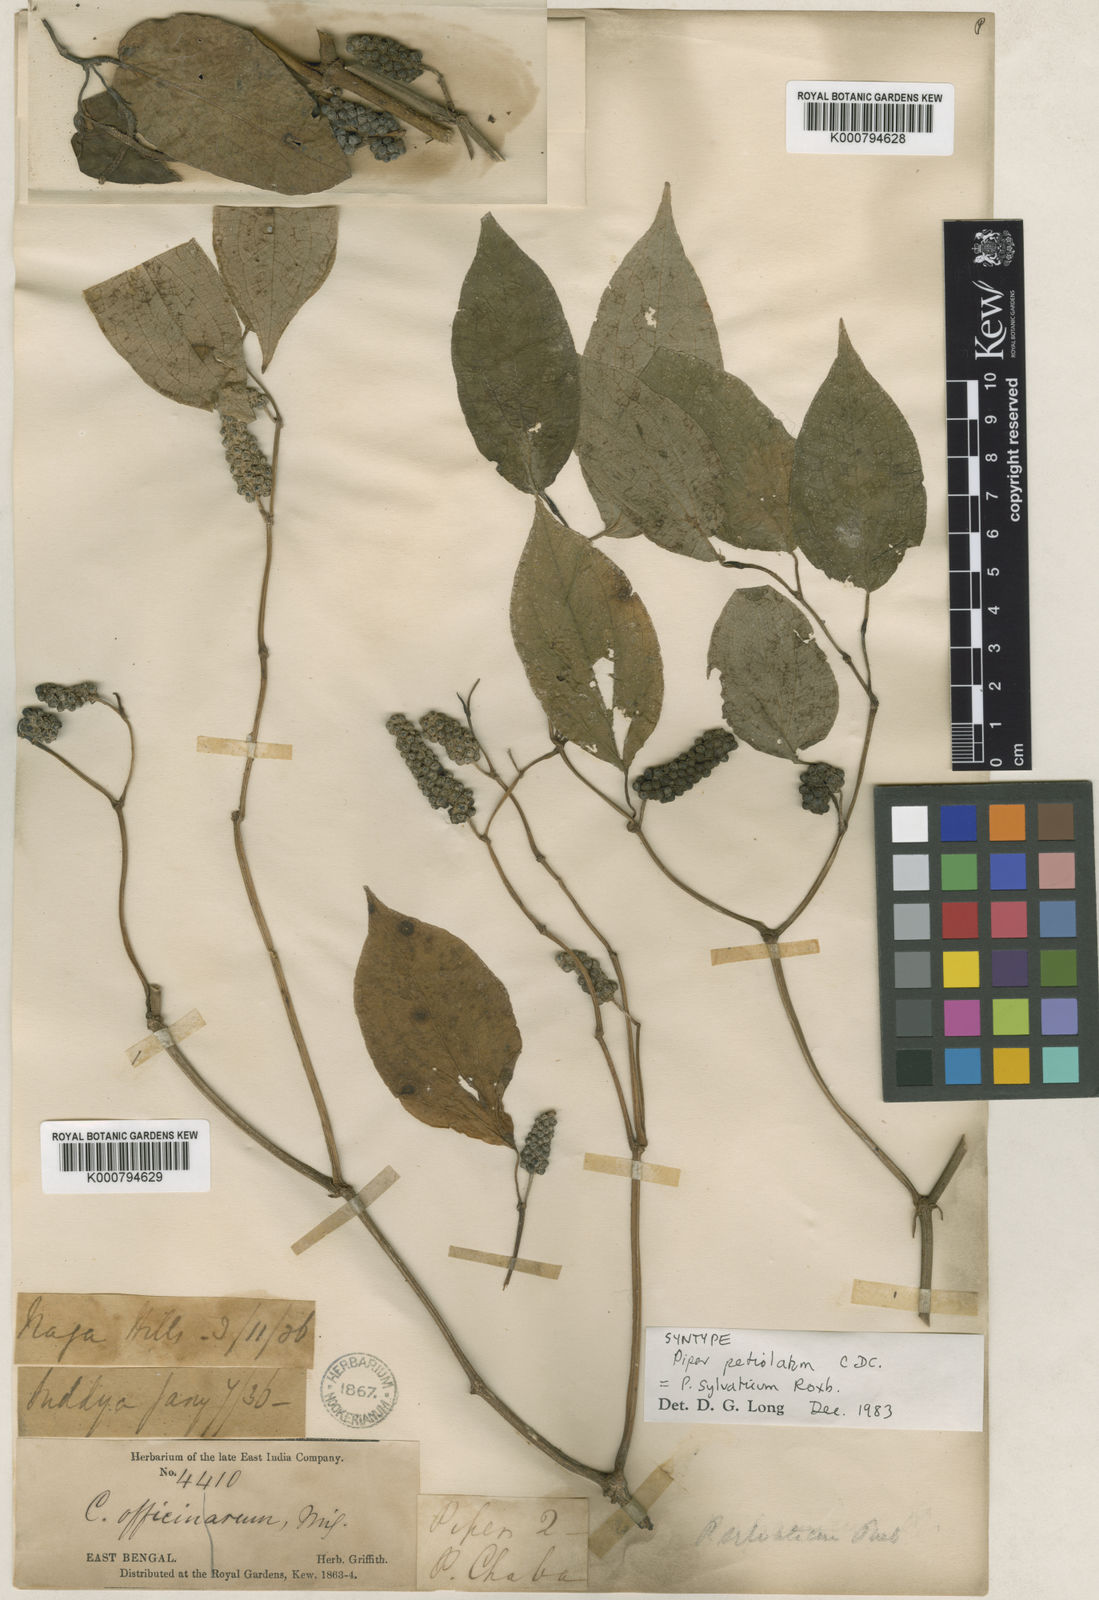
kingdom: Plantae
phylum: Tracheophyta
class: Magnoliopsida
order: Piperales
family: Piperaceae
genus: Piper
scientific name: Piper thomsonii
